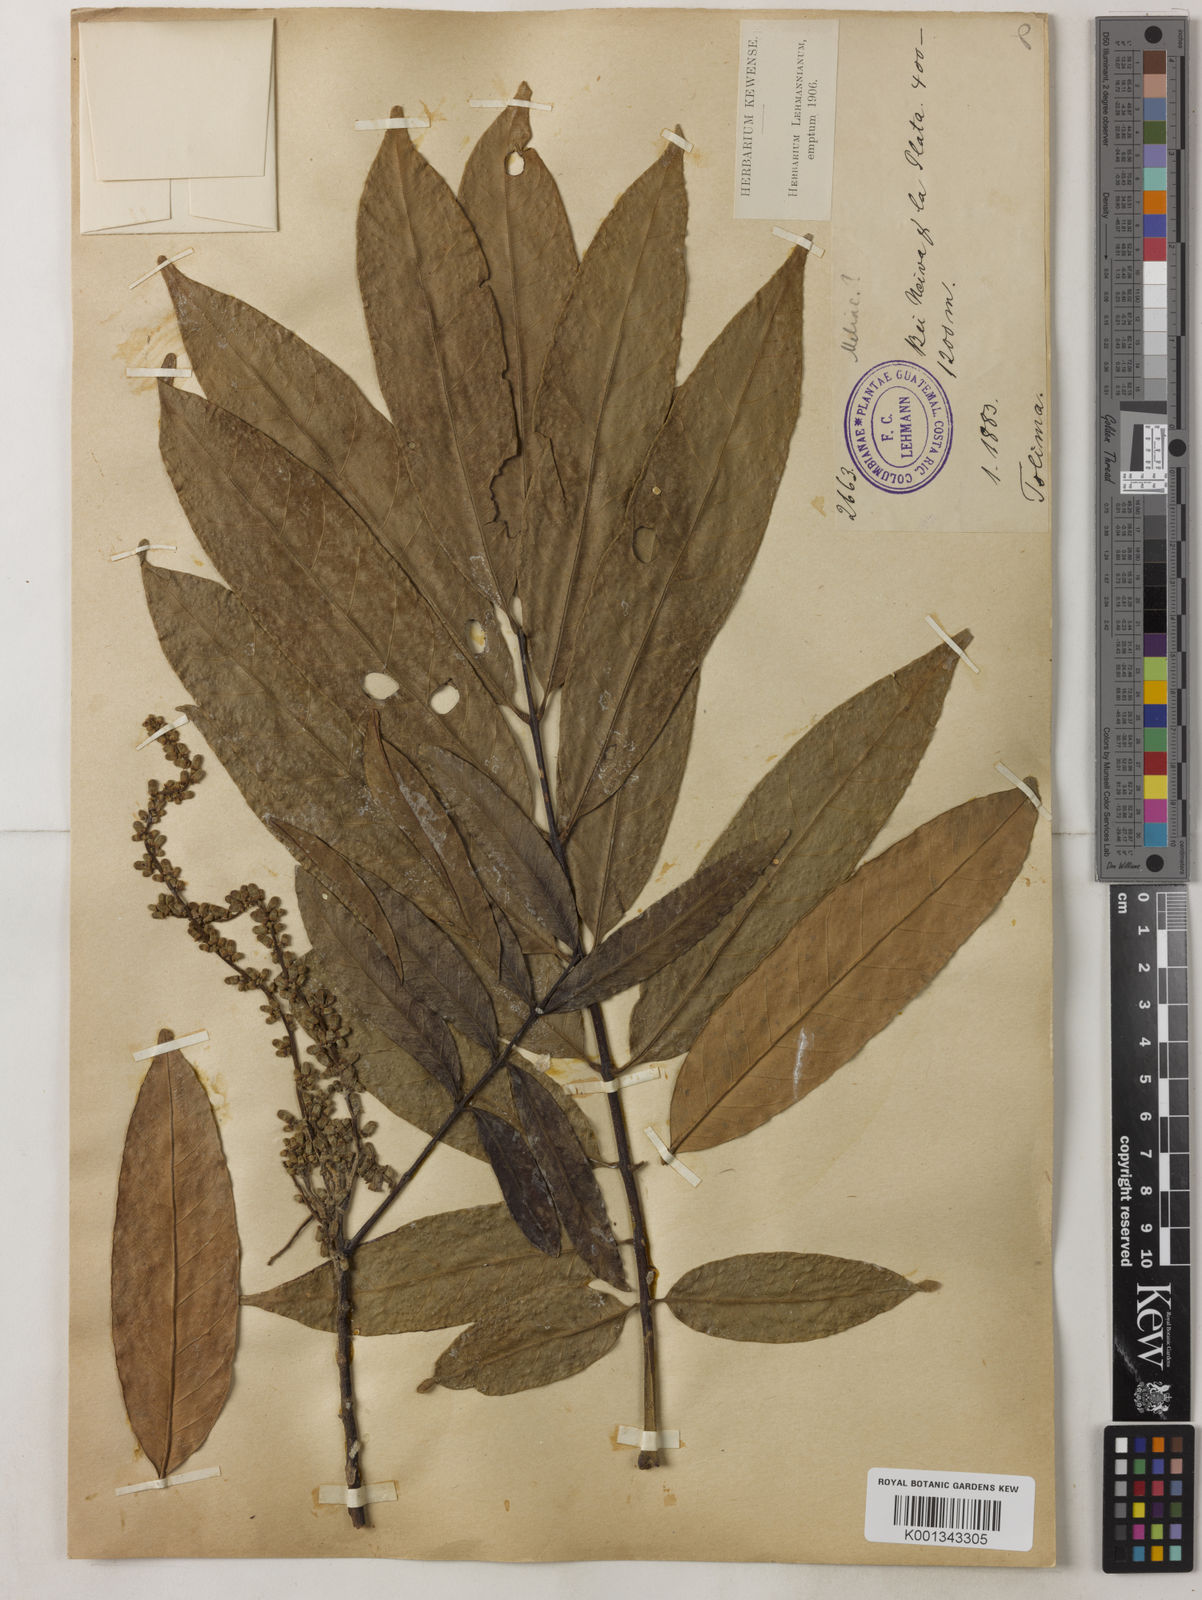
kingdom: Plantae
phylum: Tracheophyta
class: Magnoliopsida
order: Sapindales
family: Meliaceae
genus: Guarea
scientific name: Guarea guidonia
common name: American muskwood
